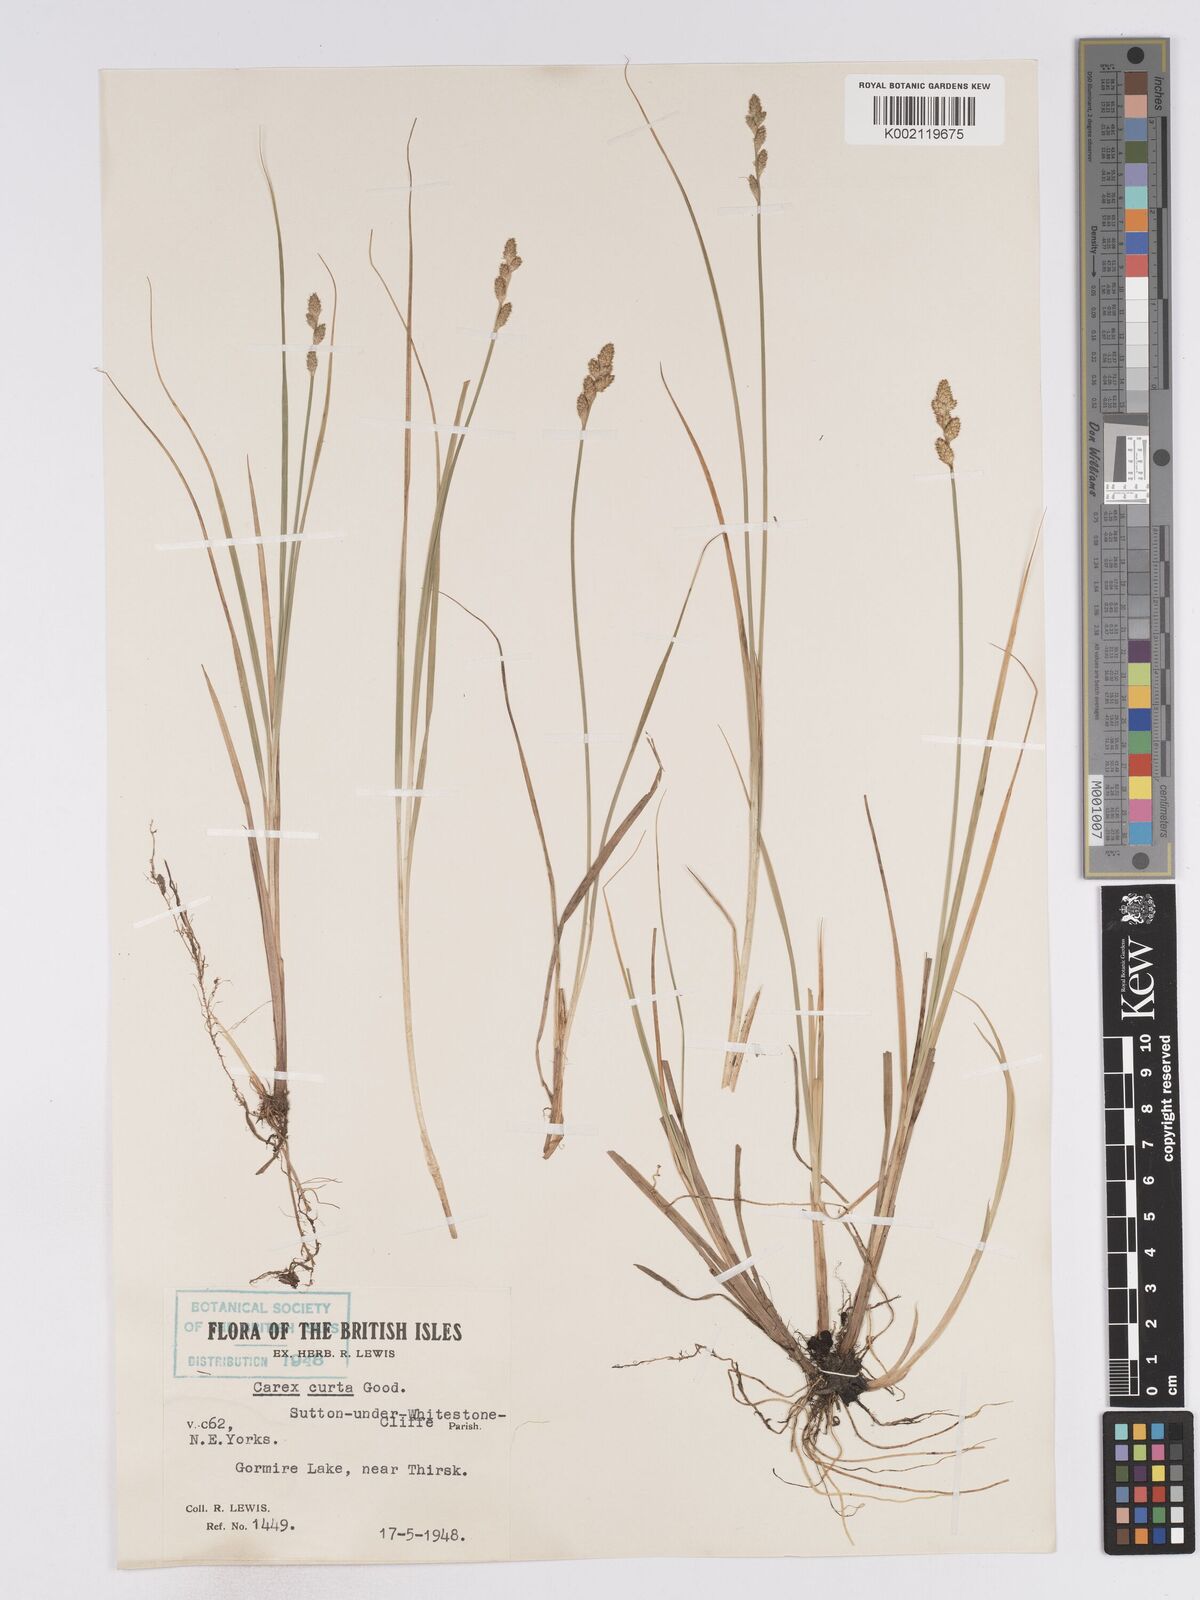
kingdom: Plantae
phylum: Tracheophyta
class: Liliopsida
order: Poales
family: Cyperaceae
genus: Carex
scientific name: Carex curta
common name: White sedge
